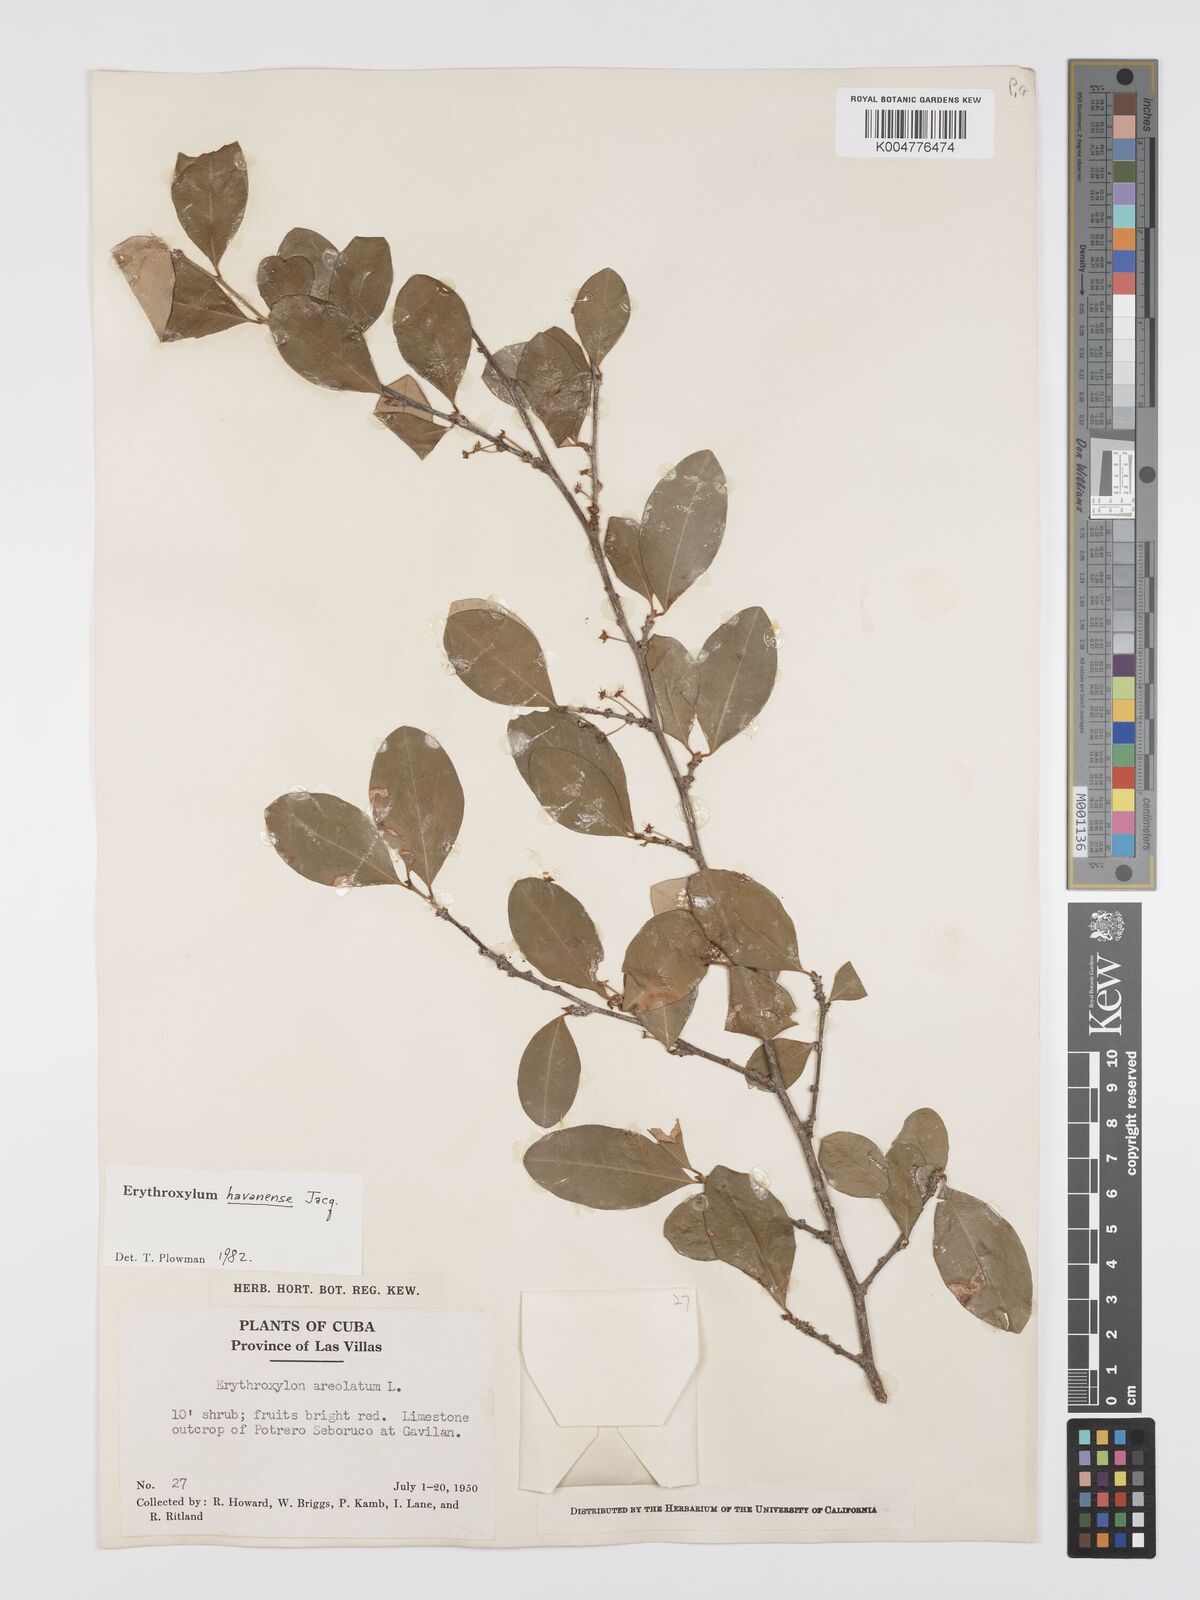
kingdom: Plantae
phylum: Tracheophyta
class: Magnoliopsida
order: Malpighiales
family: Erythroxylaceae
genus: Erythroxylum
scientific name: Erythroxylum
